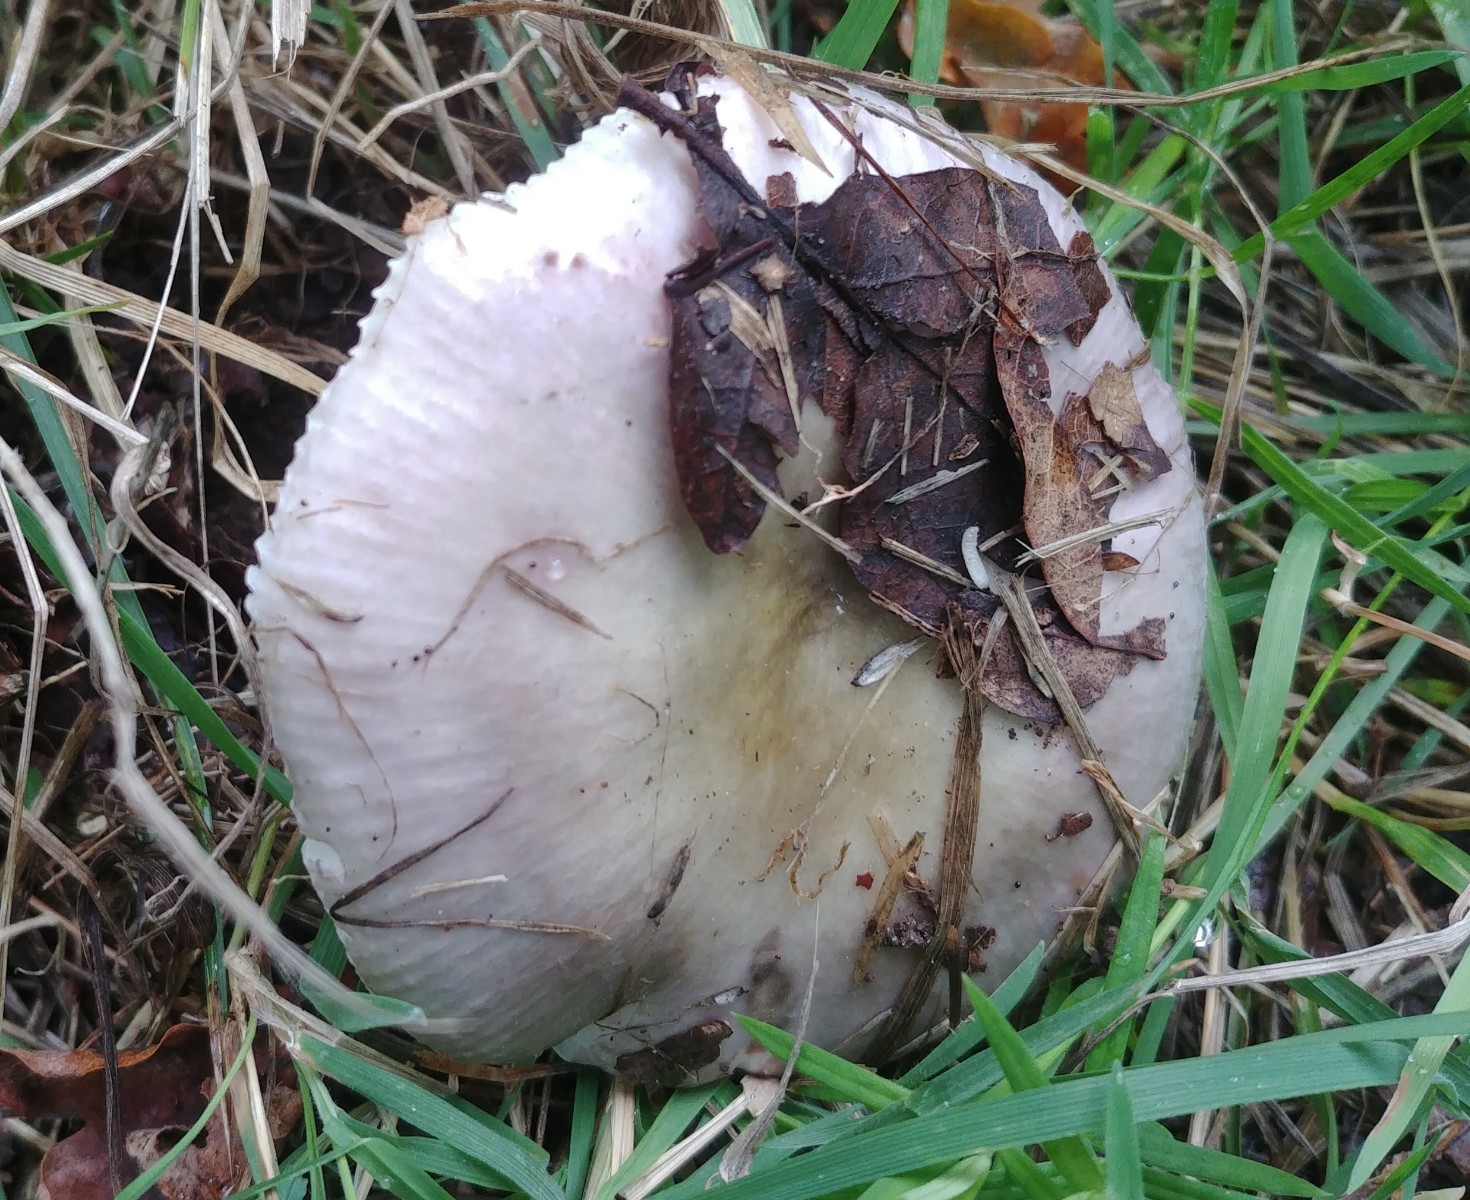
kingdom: Fungi
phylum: Basidiomycota
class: Agaricomycetes
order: Russulales
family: Russulaceae
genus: Russula
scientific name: Russula
